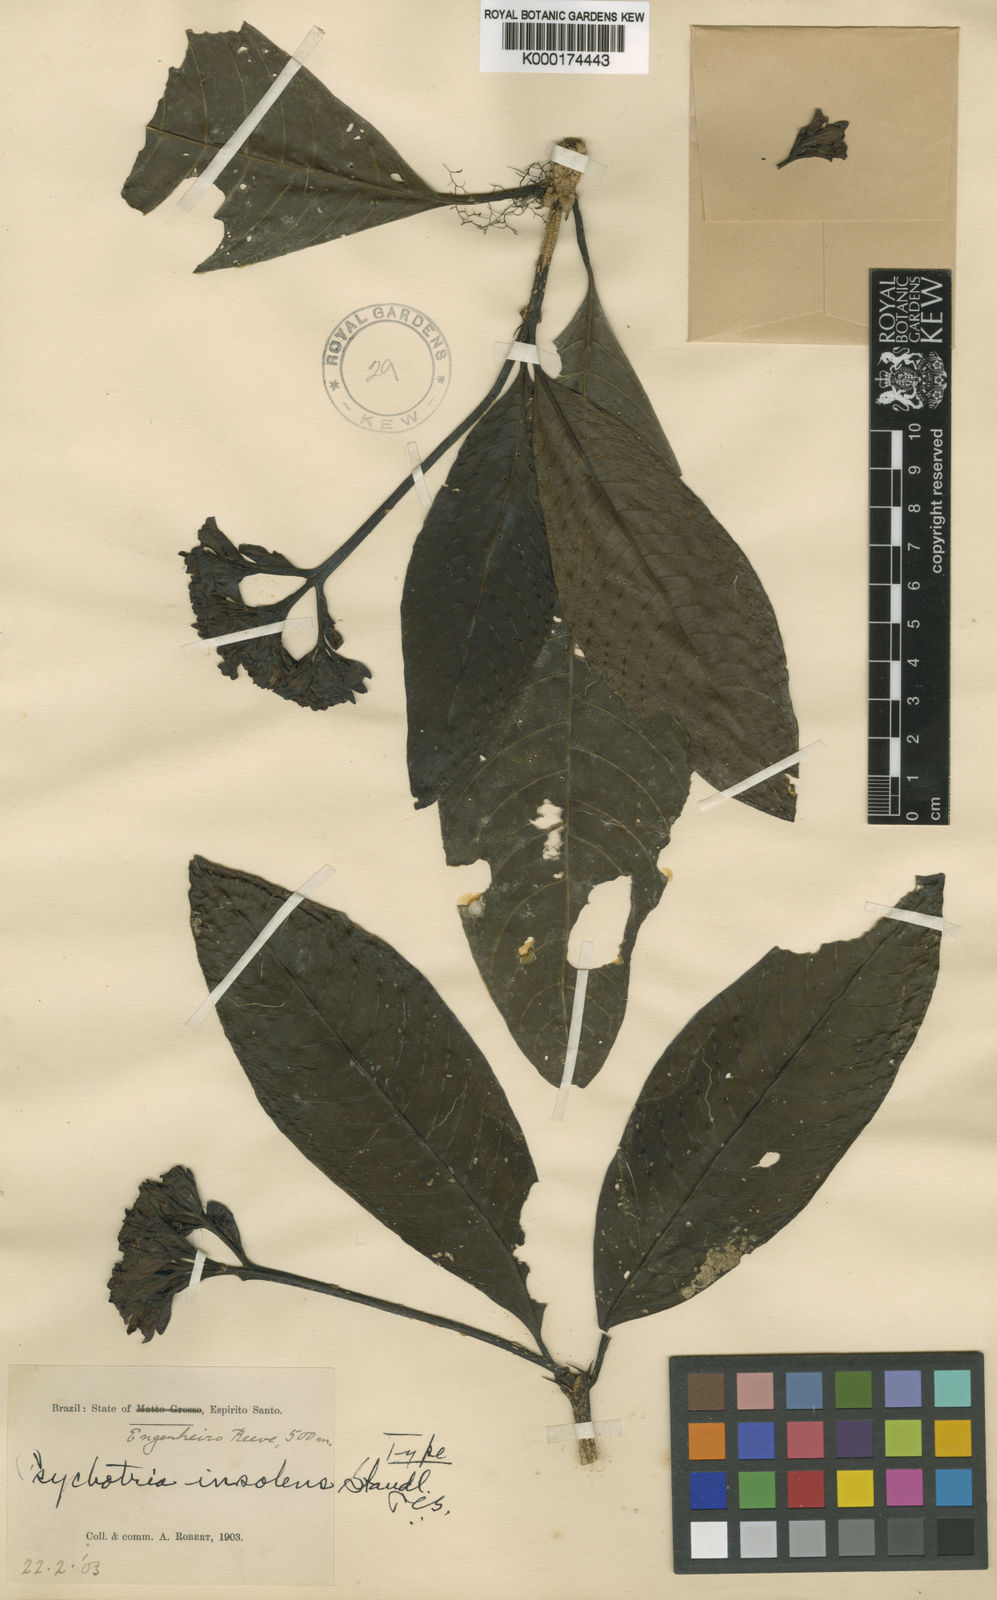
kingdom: Plantae
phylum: Tracheophyta
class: Magnoliopsida
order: Gentianales
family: Rubiaceae
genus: Psychotria
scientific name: Psychotria insolens
